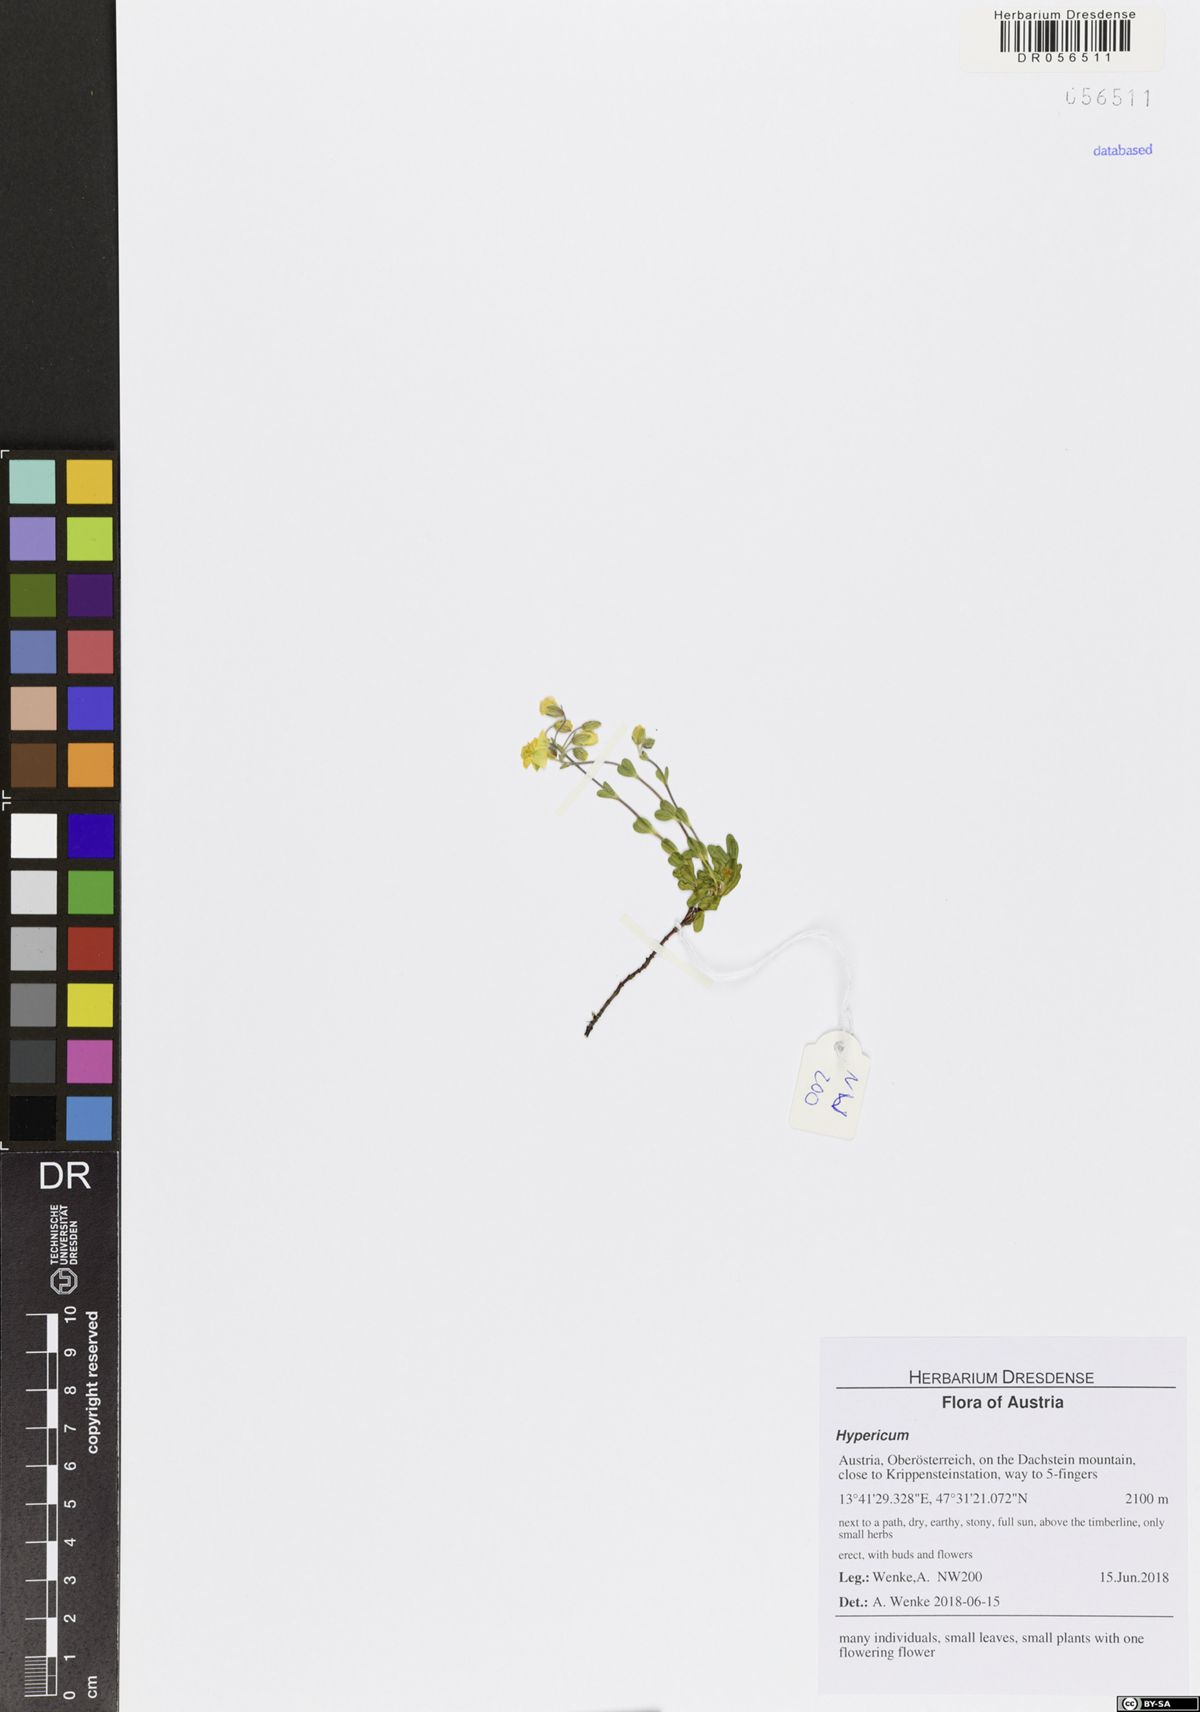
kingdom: Plantae
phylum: Tracheophyta
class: Magnoliopsida
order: Malpighiales
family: Hypericaceae
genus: Hypericum
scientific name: Hypericum
